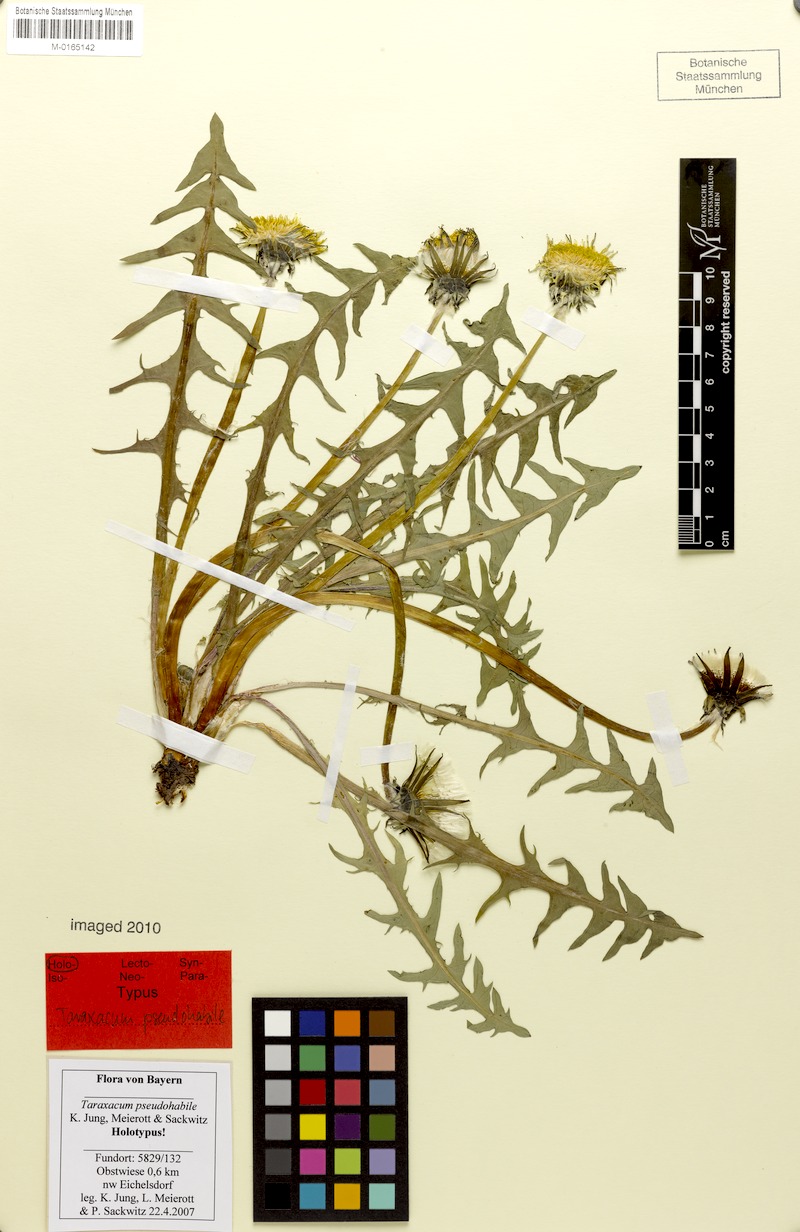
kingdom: Plantae
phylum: Tracheophyta
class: Magnoliopsida
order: Asterales
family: Asteraceae
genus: Taraxacum
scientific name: Taraxacum pseudohabile
